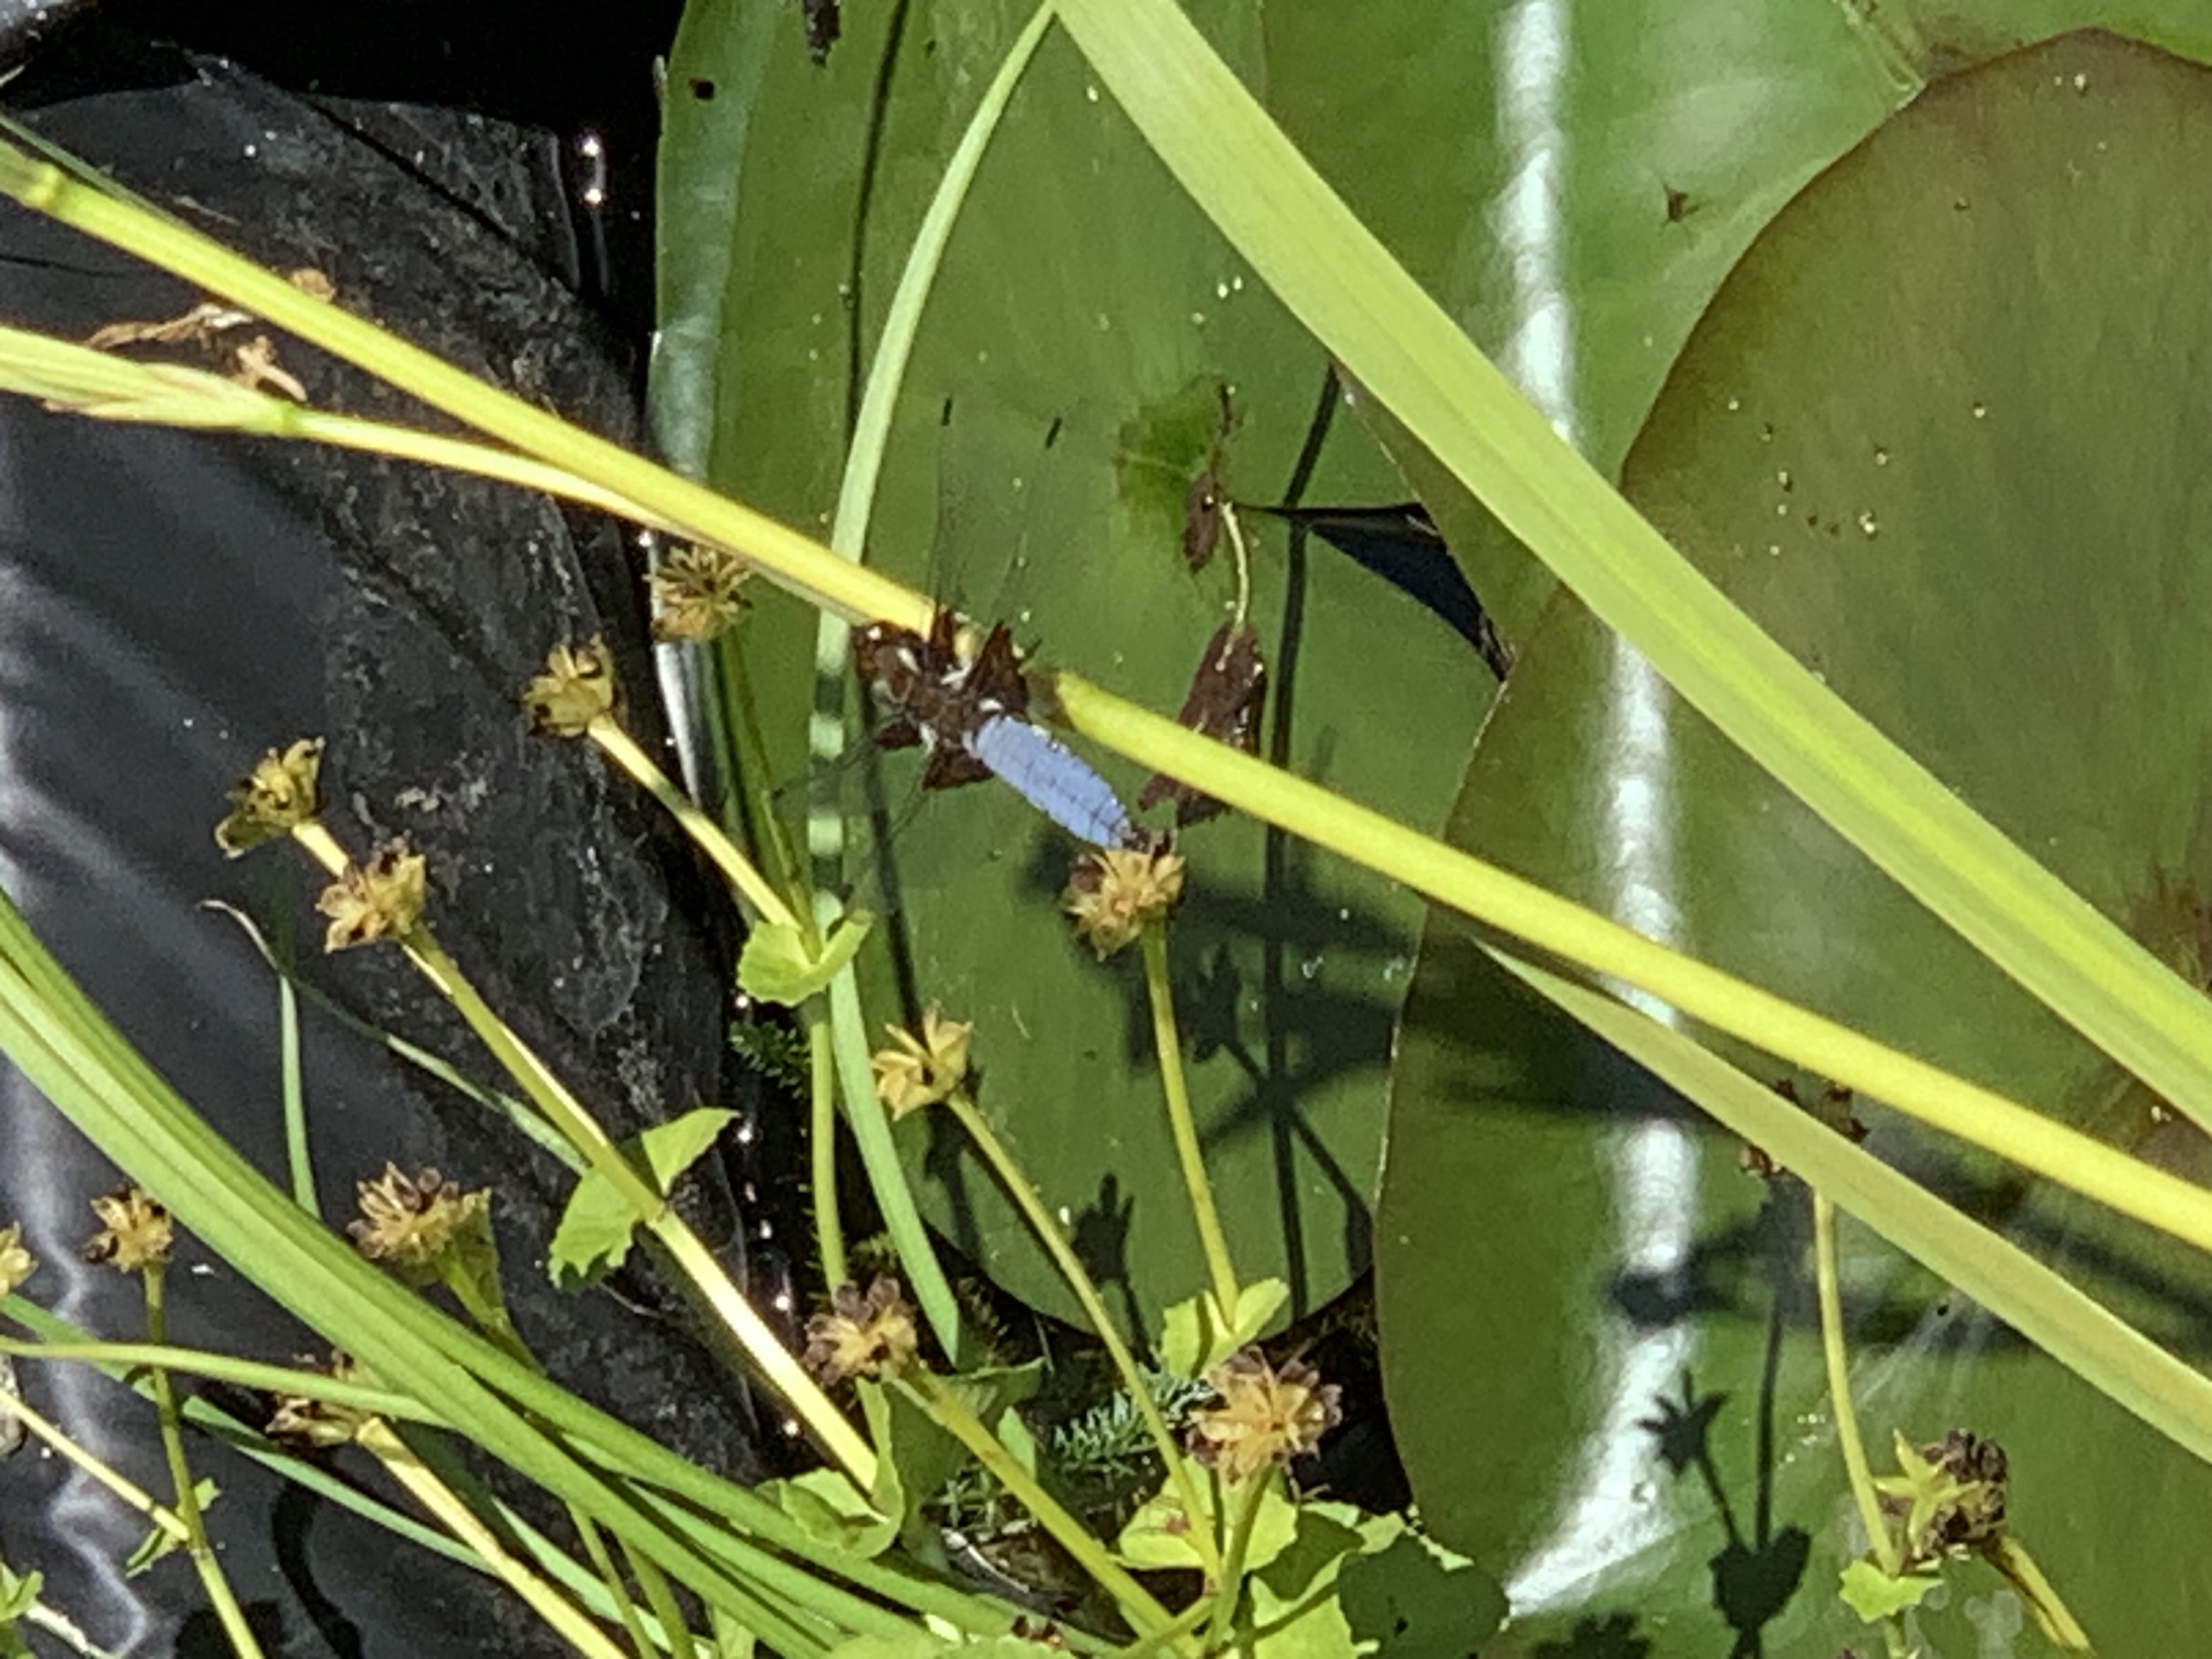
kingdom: Animalia
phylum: Arthropoda
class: Insecta
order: Odonata
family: Libellulidae
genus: Libellula
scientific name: Libellula depressa
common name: Blå libel
